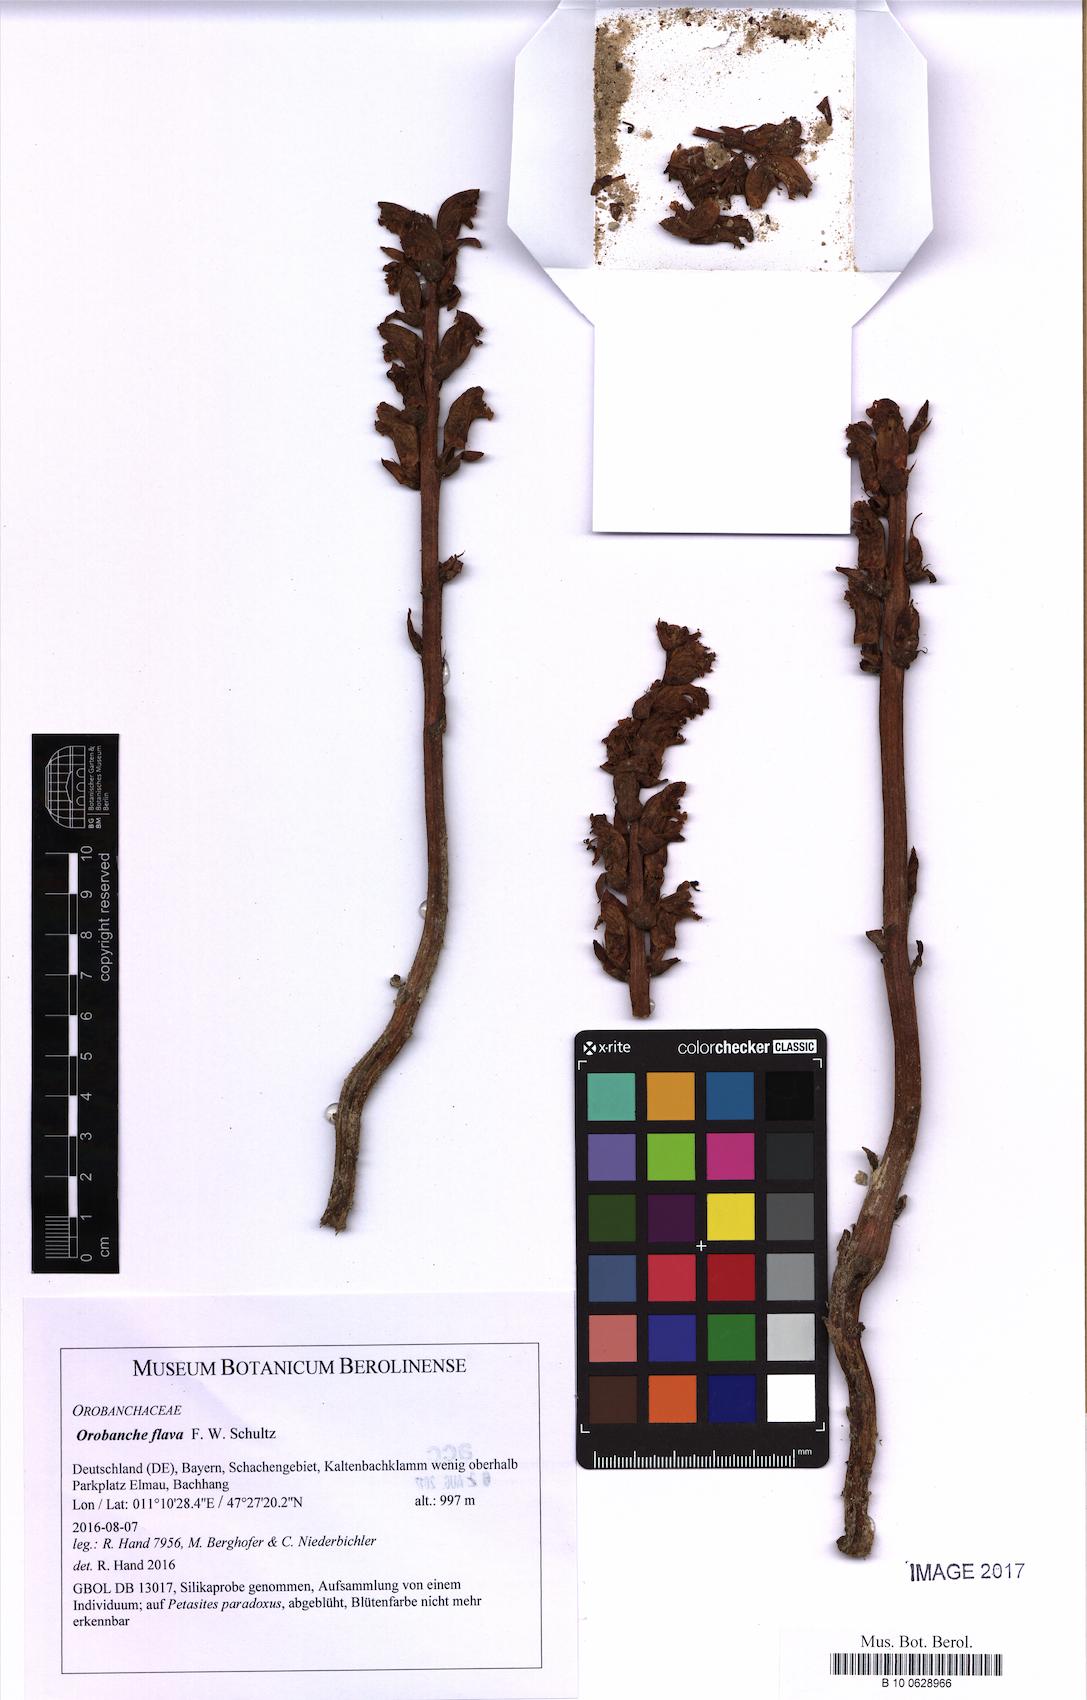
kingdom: Plantae
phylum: Tracheophyta
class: Magnoliopsida
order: Lamiales
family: Orobanchaceae
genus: Orobanche
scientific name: Orobanche flava
